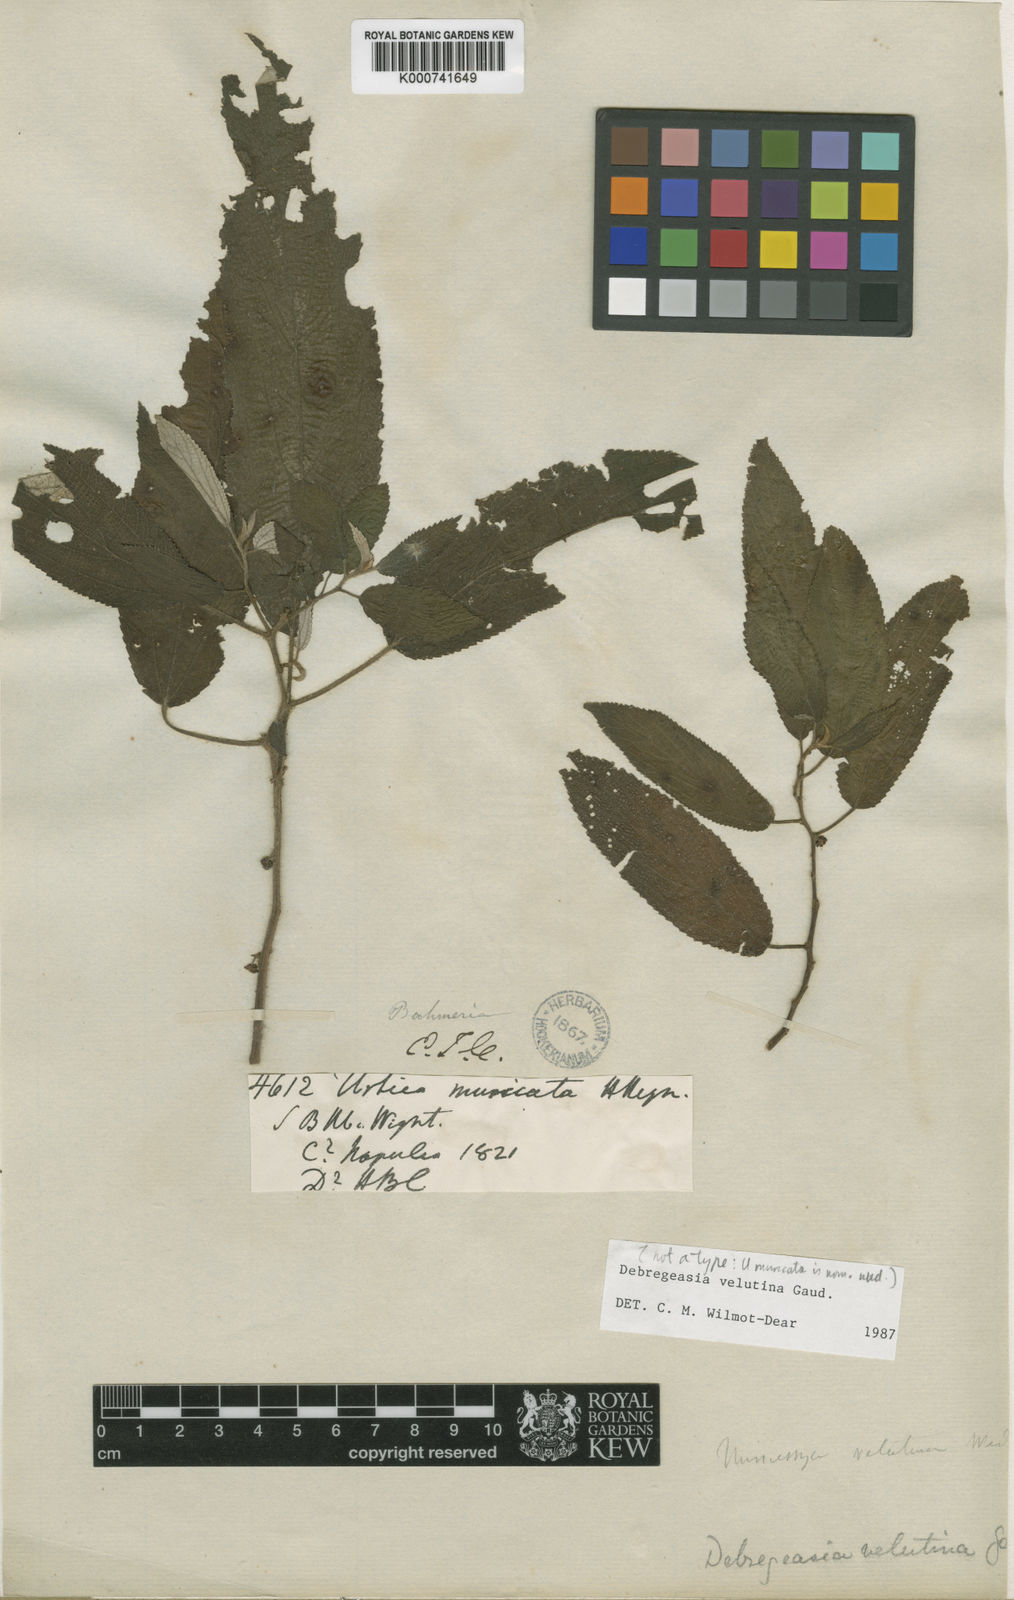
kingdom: Plantae
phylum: Tracheophyta
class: Magnoliopsida
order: Rosales
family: Urticaceae
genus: Debregeasia
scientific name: Debregeasia longifolia
